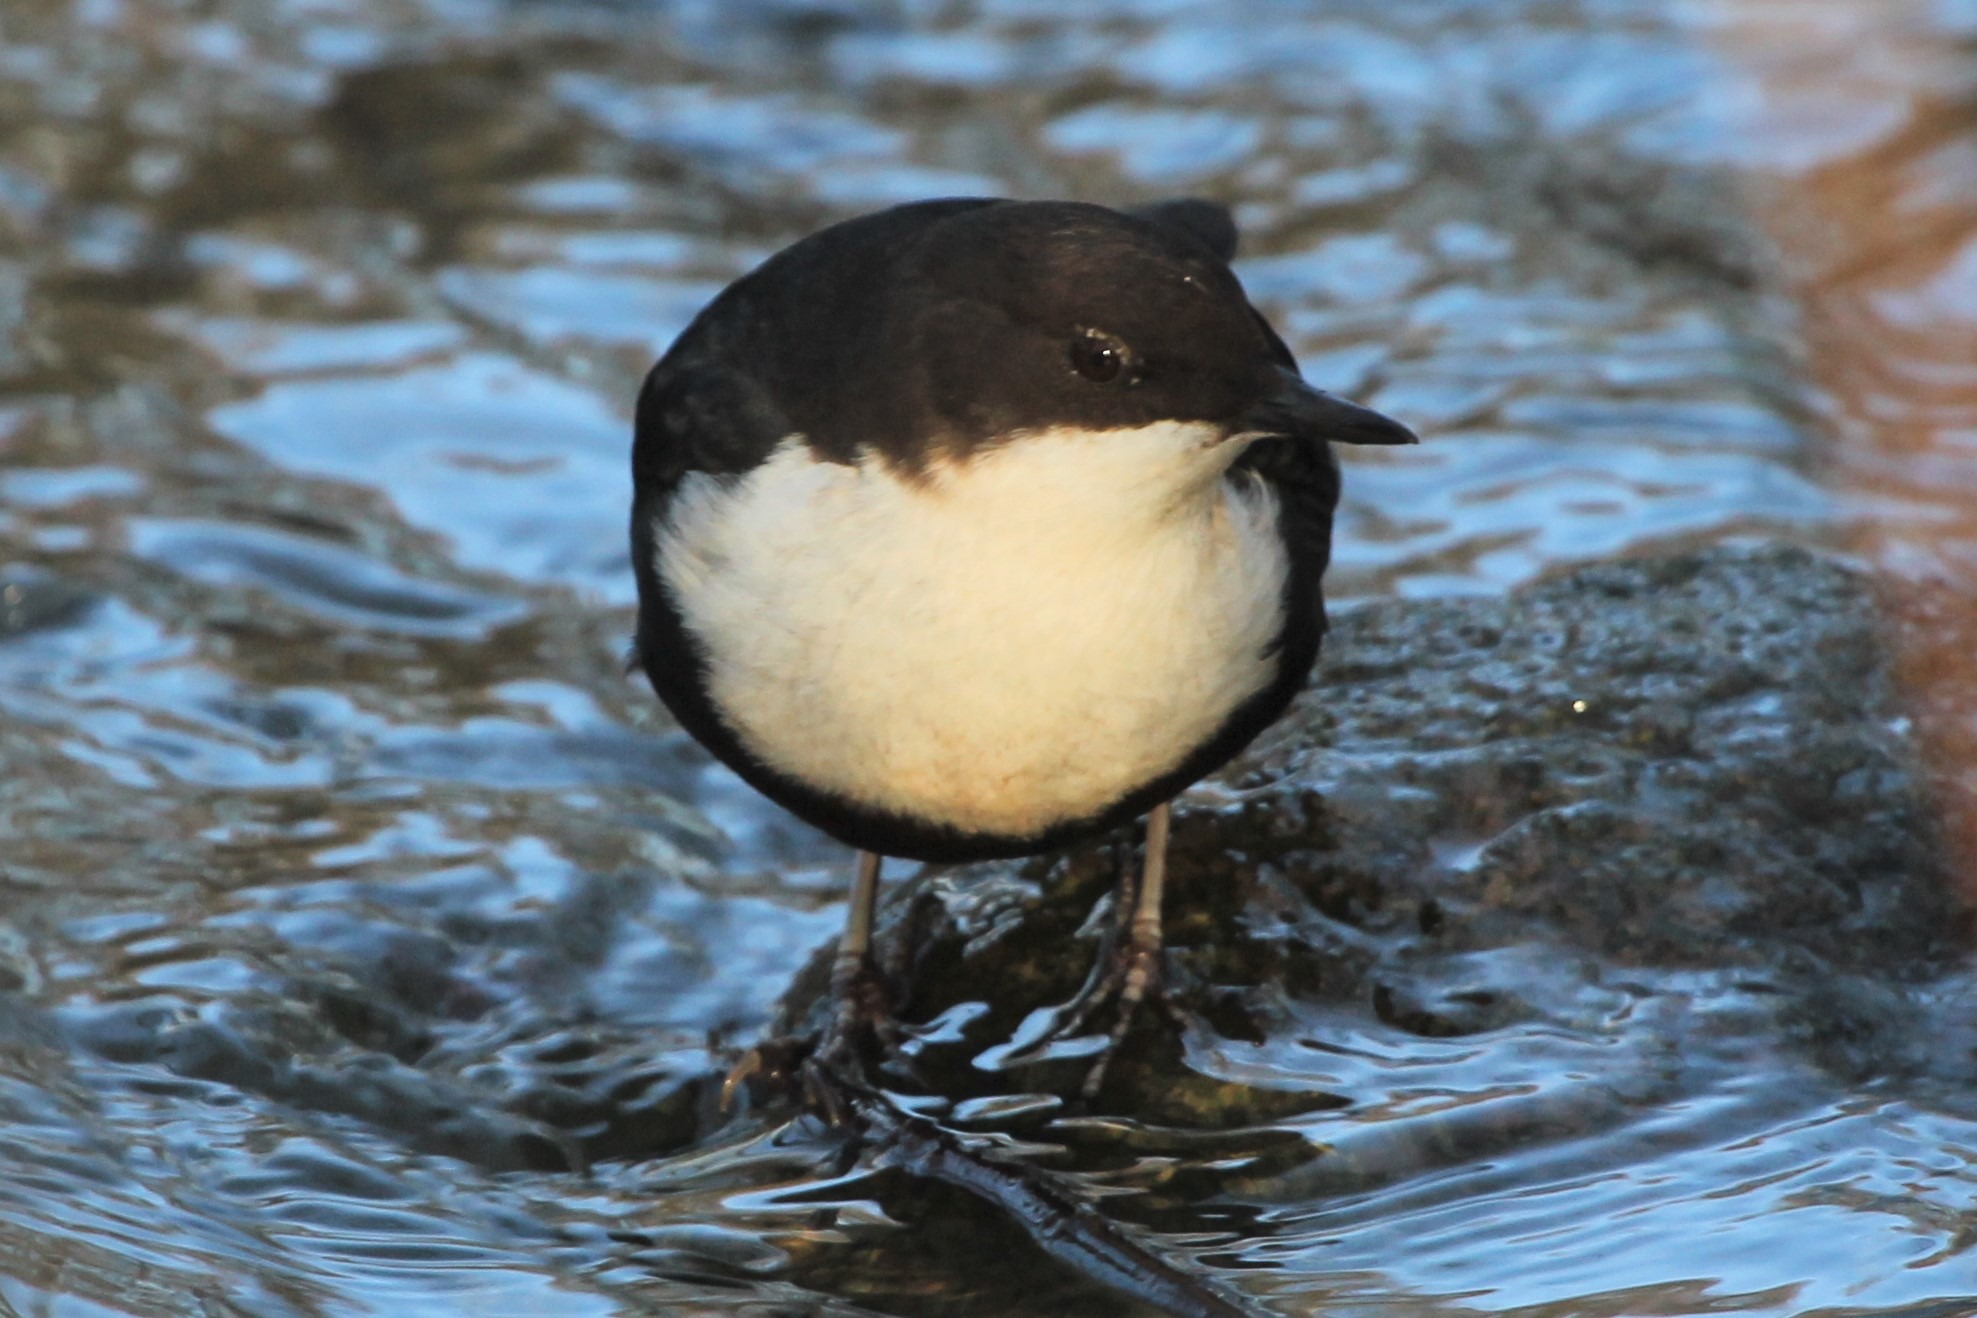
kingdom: Animalia
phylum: Chordata
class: Aves
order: Passeriformes
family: Cinclidae
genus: Cinclus
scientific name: Cinclus cinclus
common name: Vandstær
